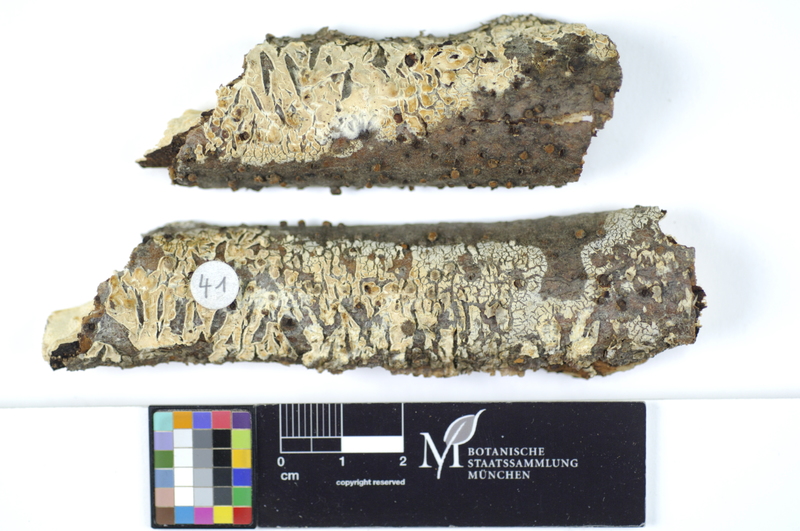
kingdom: Plantae
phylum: Tracheophyta
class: Magnoliopsida
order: Fagales
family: Fagaceae
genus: Fagus
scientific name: Fagus sylvatica
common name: Beech
